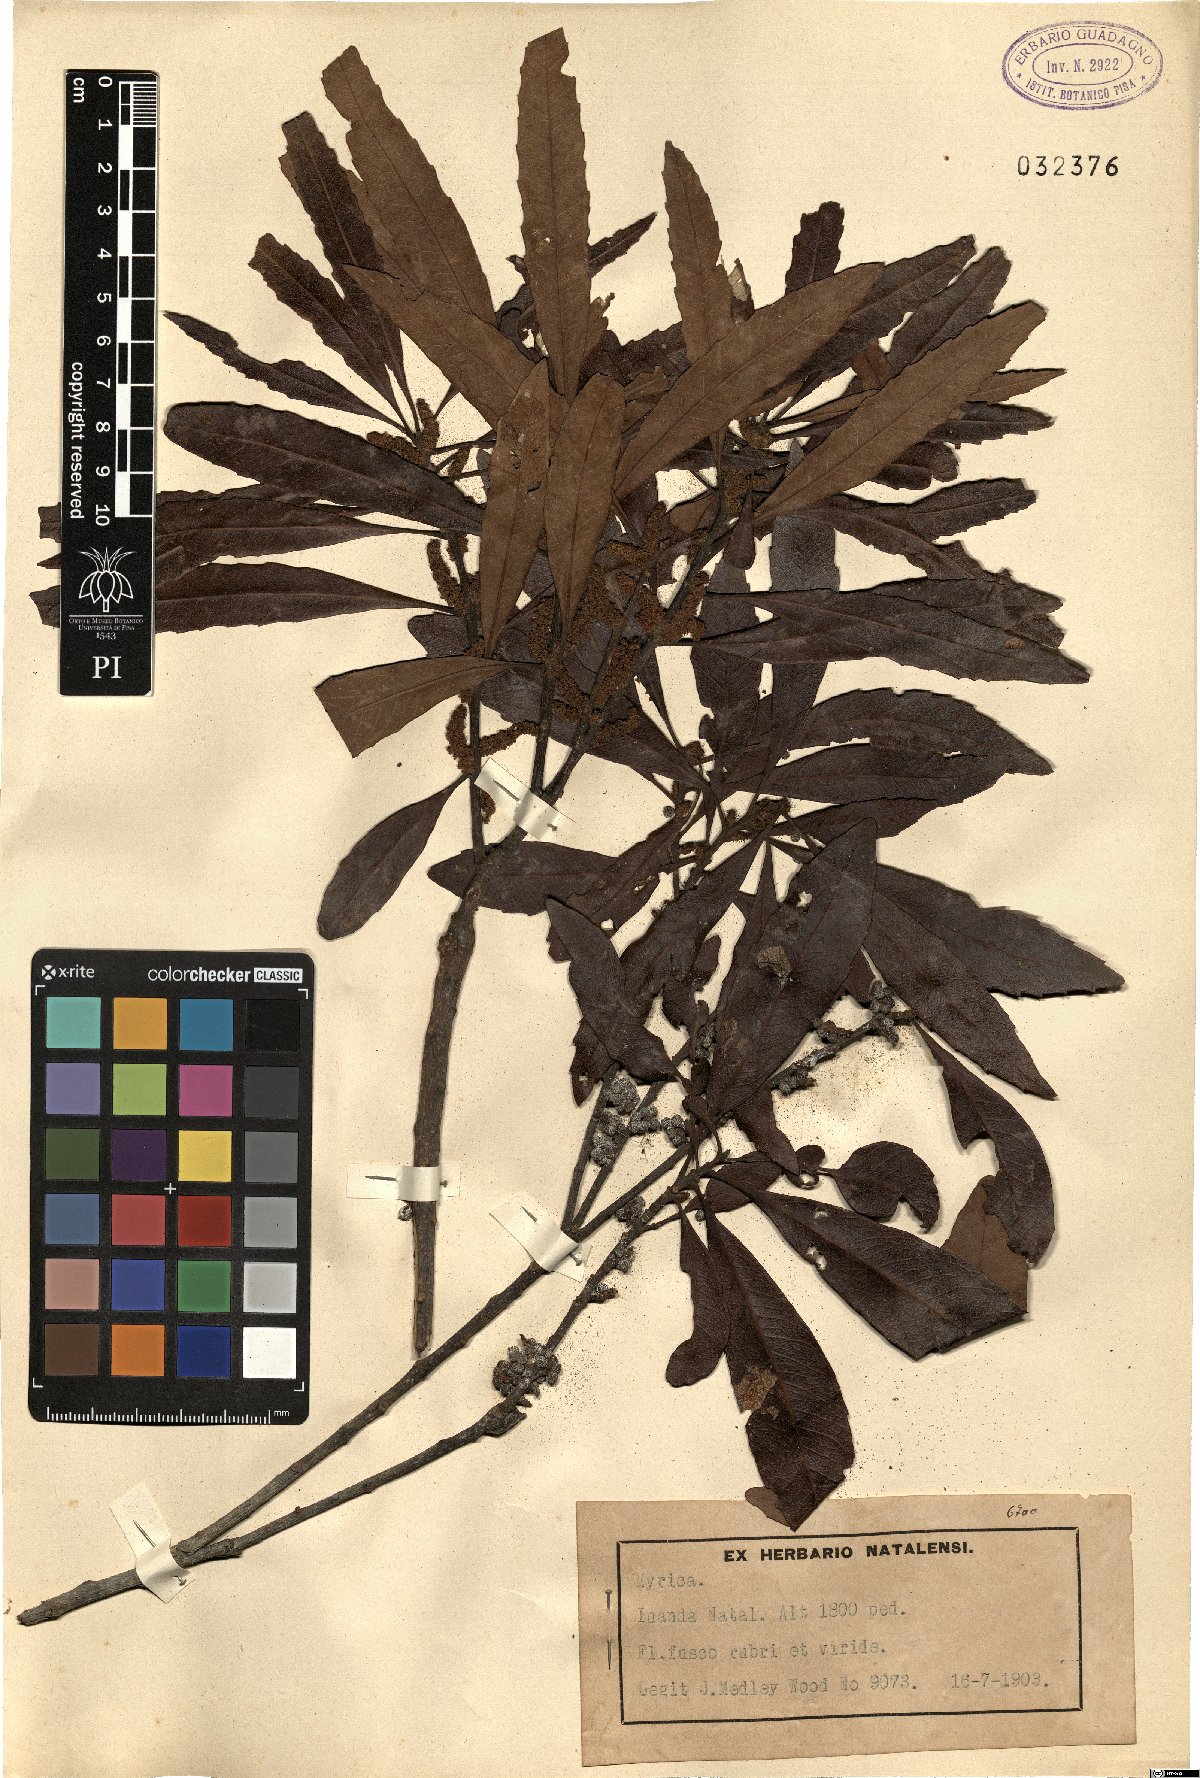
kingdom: Plantae
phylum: Tracheophyta
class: Magnoliopsida
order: Fagales
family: Myricaceae
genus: Myrica
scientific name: Myrica
